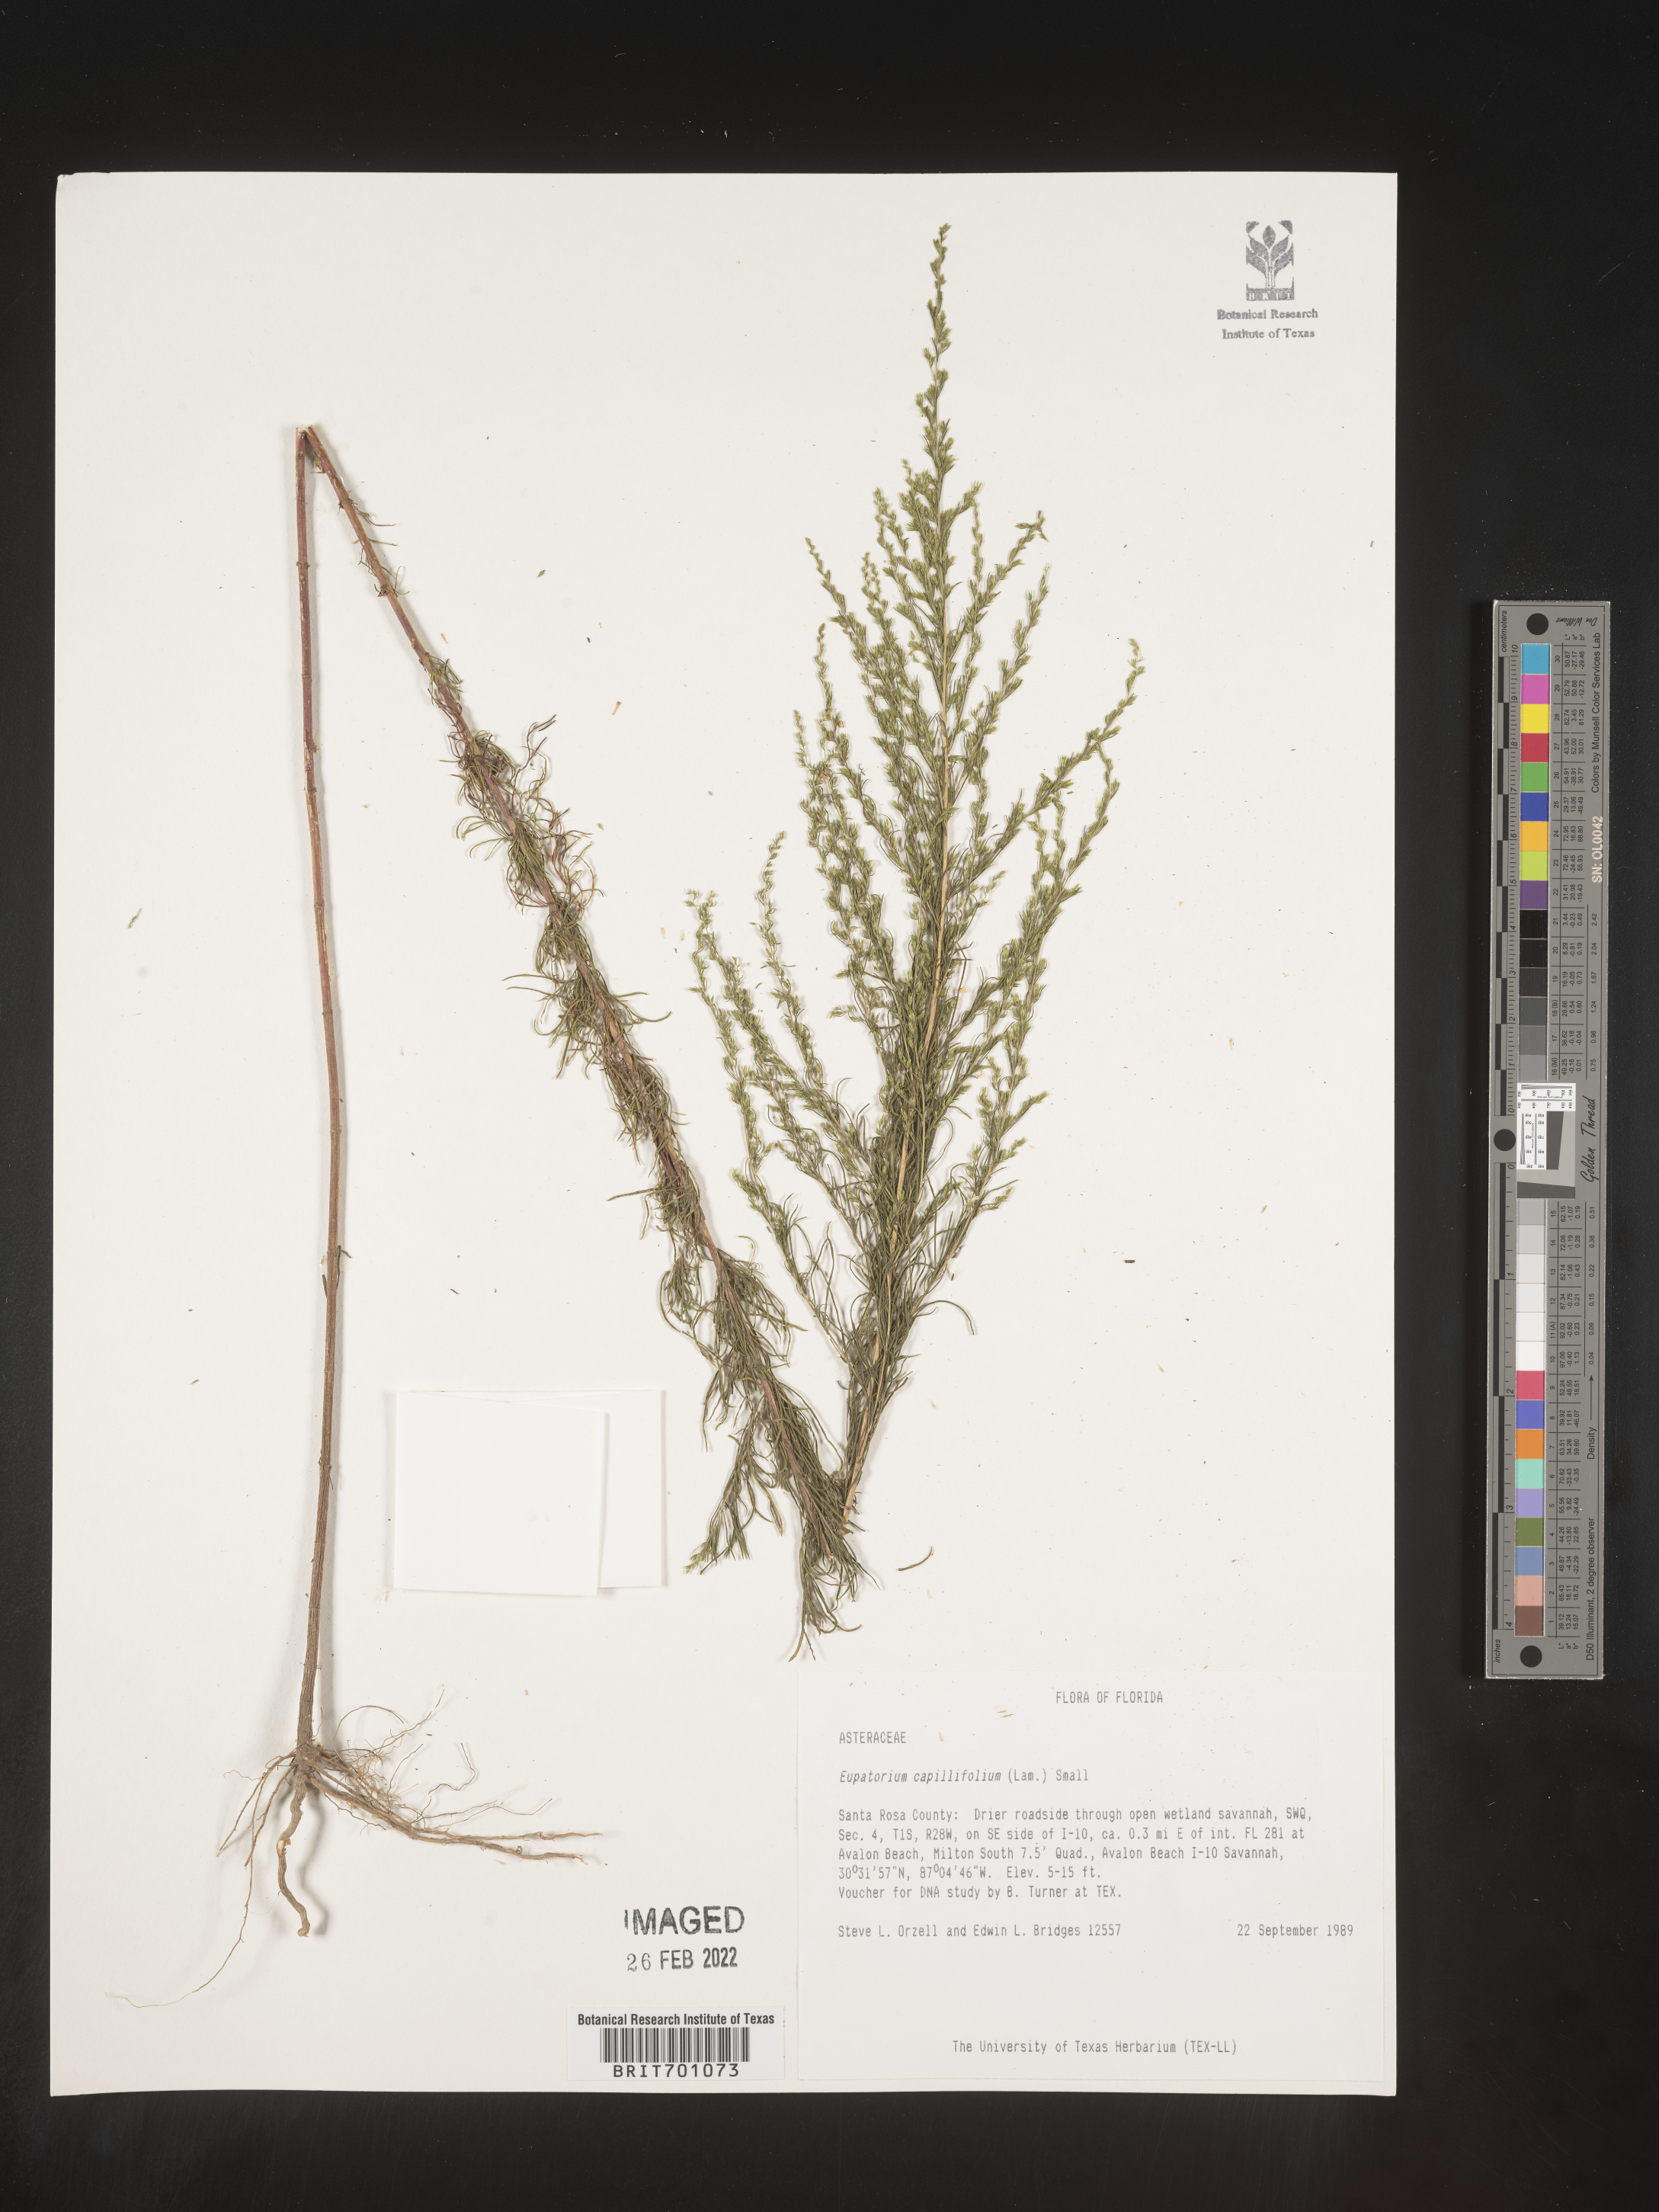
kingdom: Plantae
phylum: Tracheophyta
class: Magnoliopsida
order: Asterales
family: Asteraceae
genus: Eupatorium
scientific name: Eupatorium capillifolium
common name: Dog-fennel
